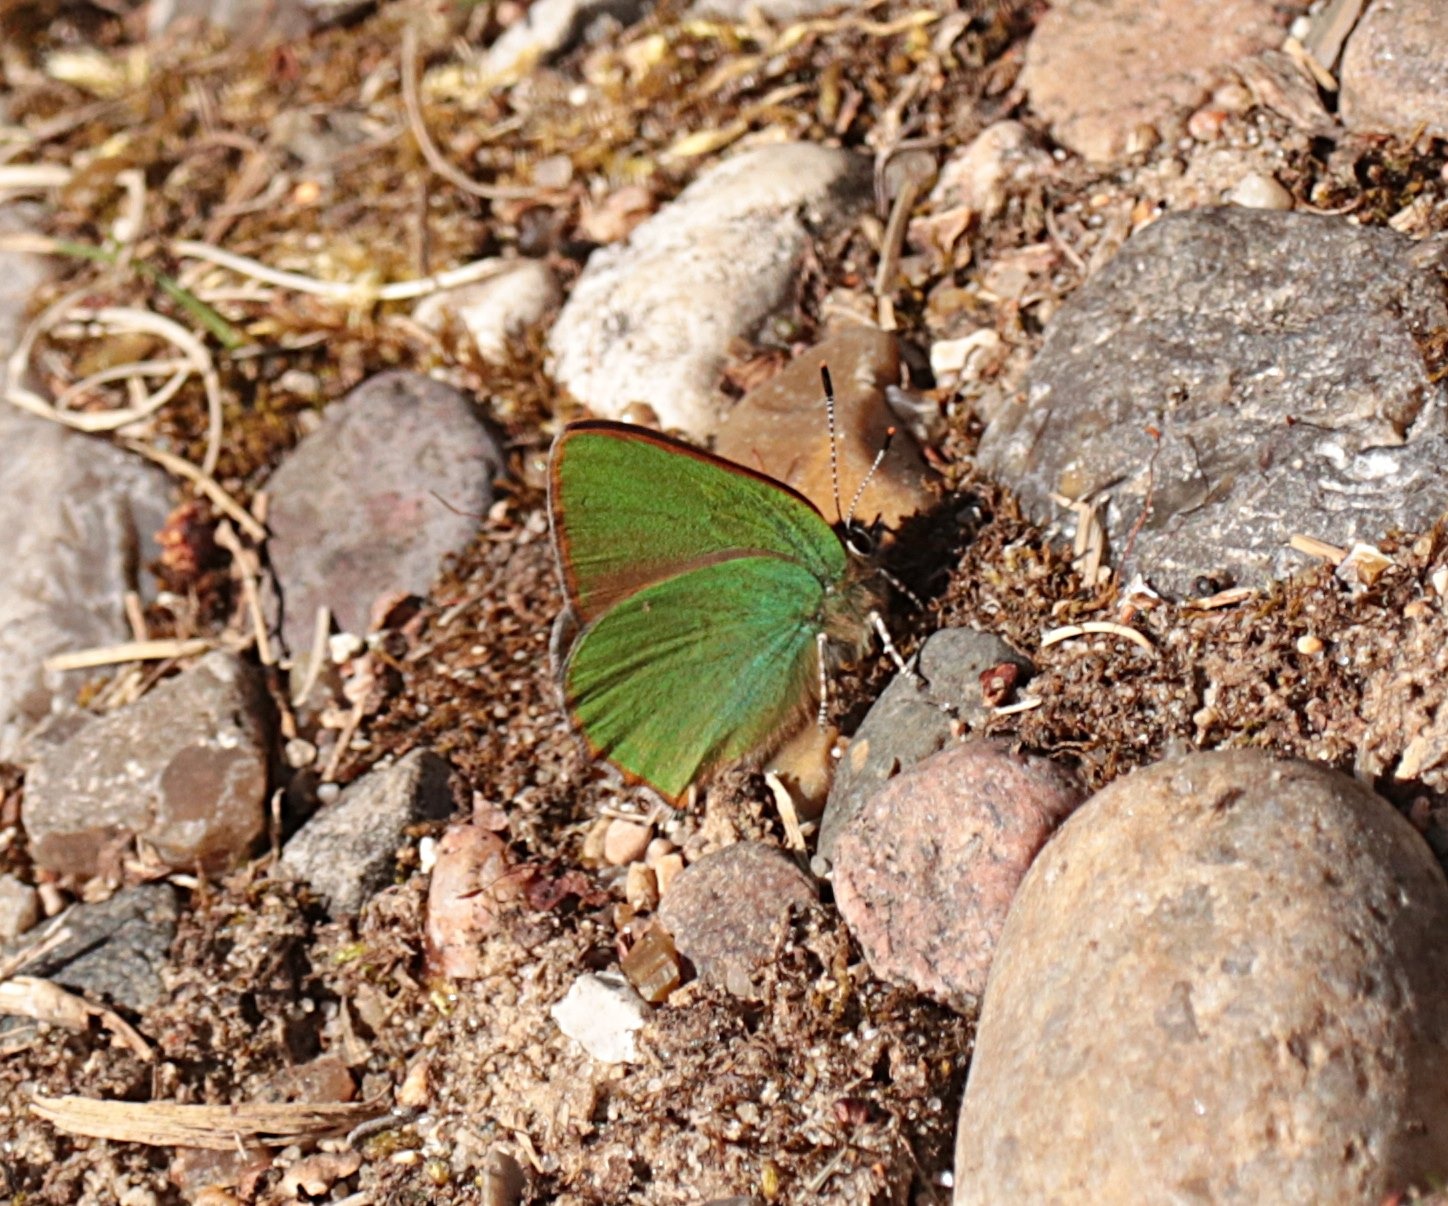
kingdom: Animalia
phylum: Arthropoda
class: Insecta
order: Lepidoptera
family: Lycaenidae
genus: Callophrys
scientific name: Callophrys rubi
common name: Grøn busksommerfugl
